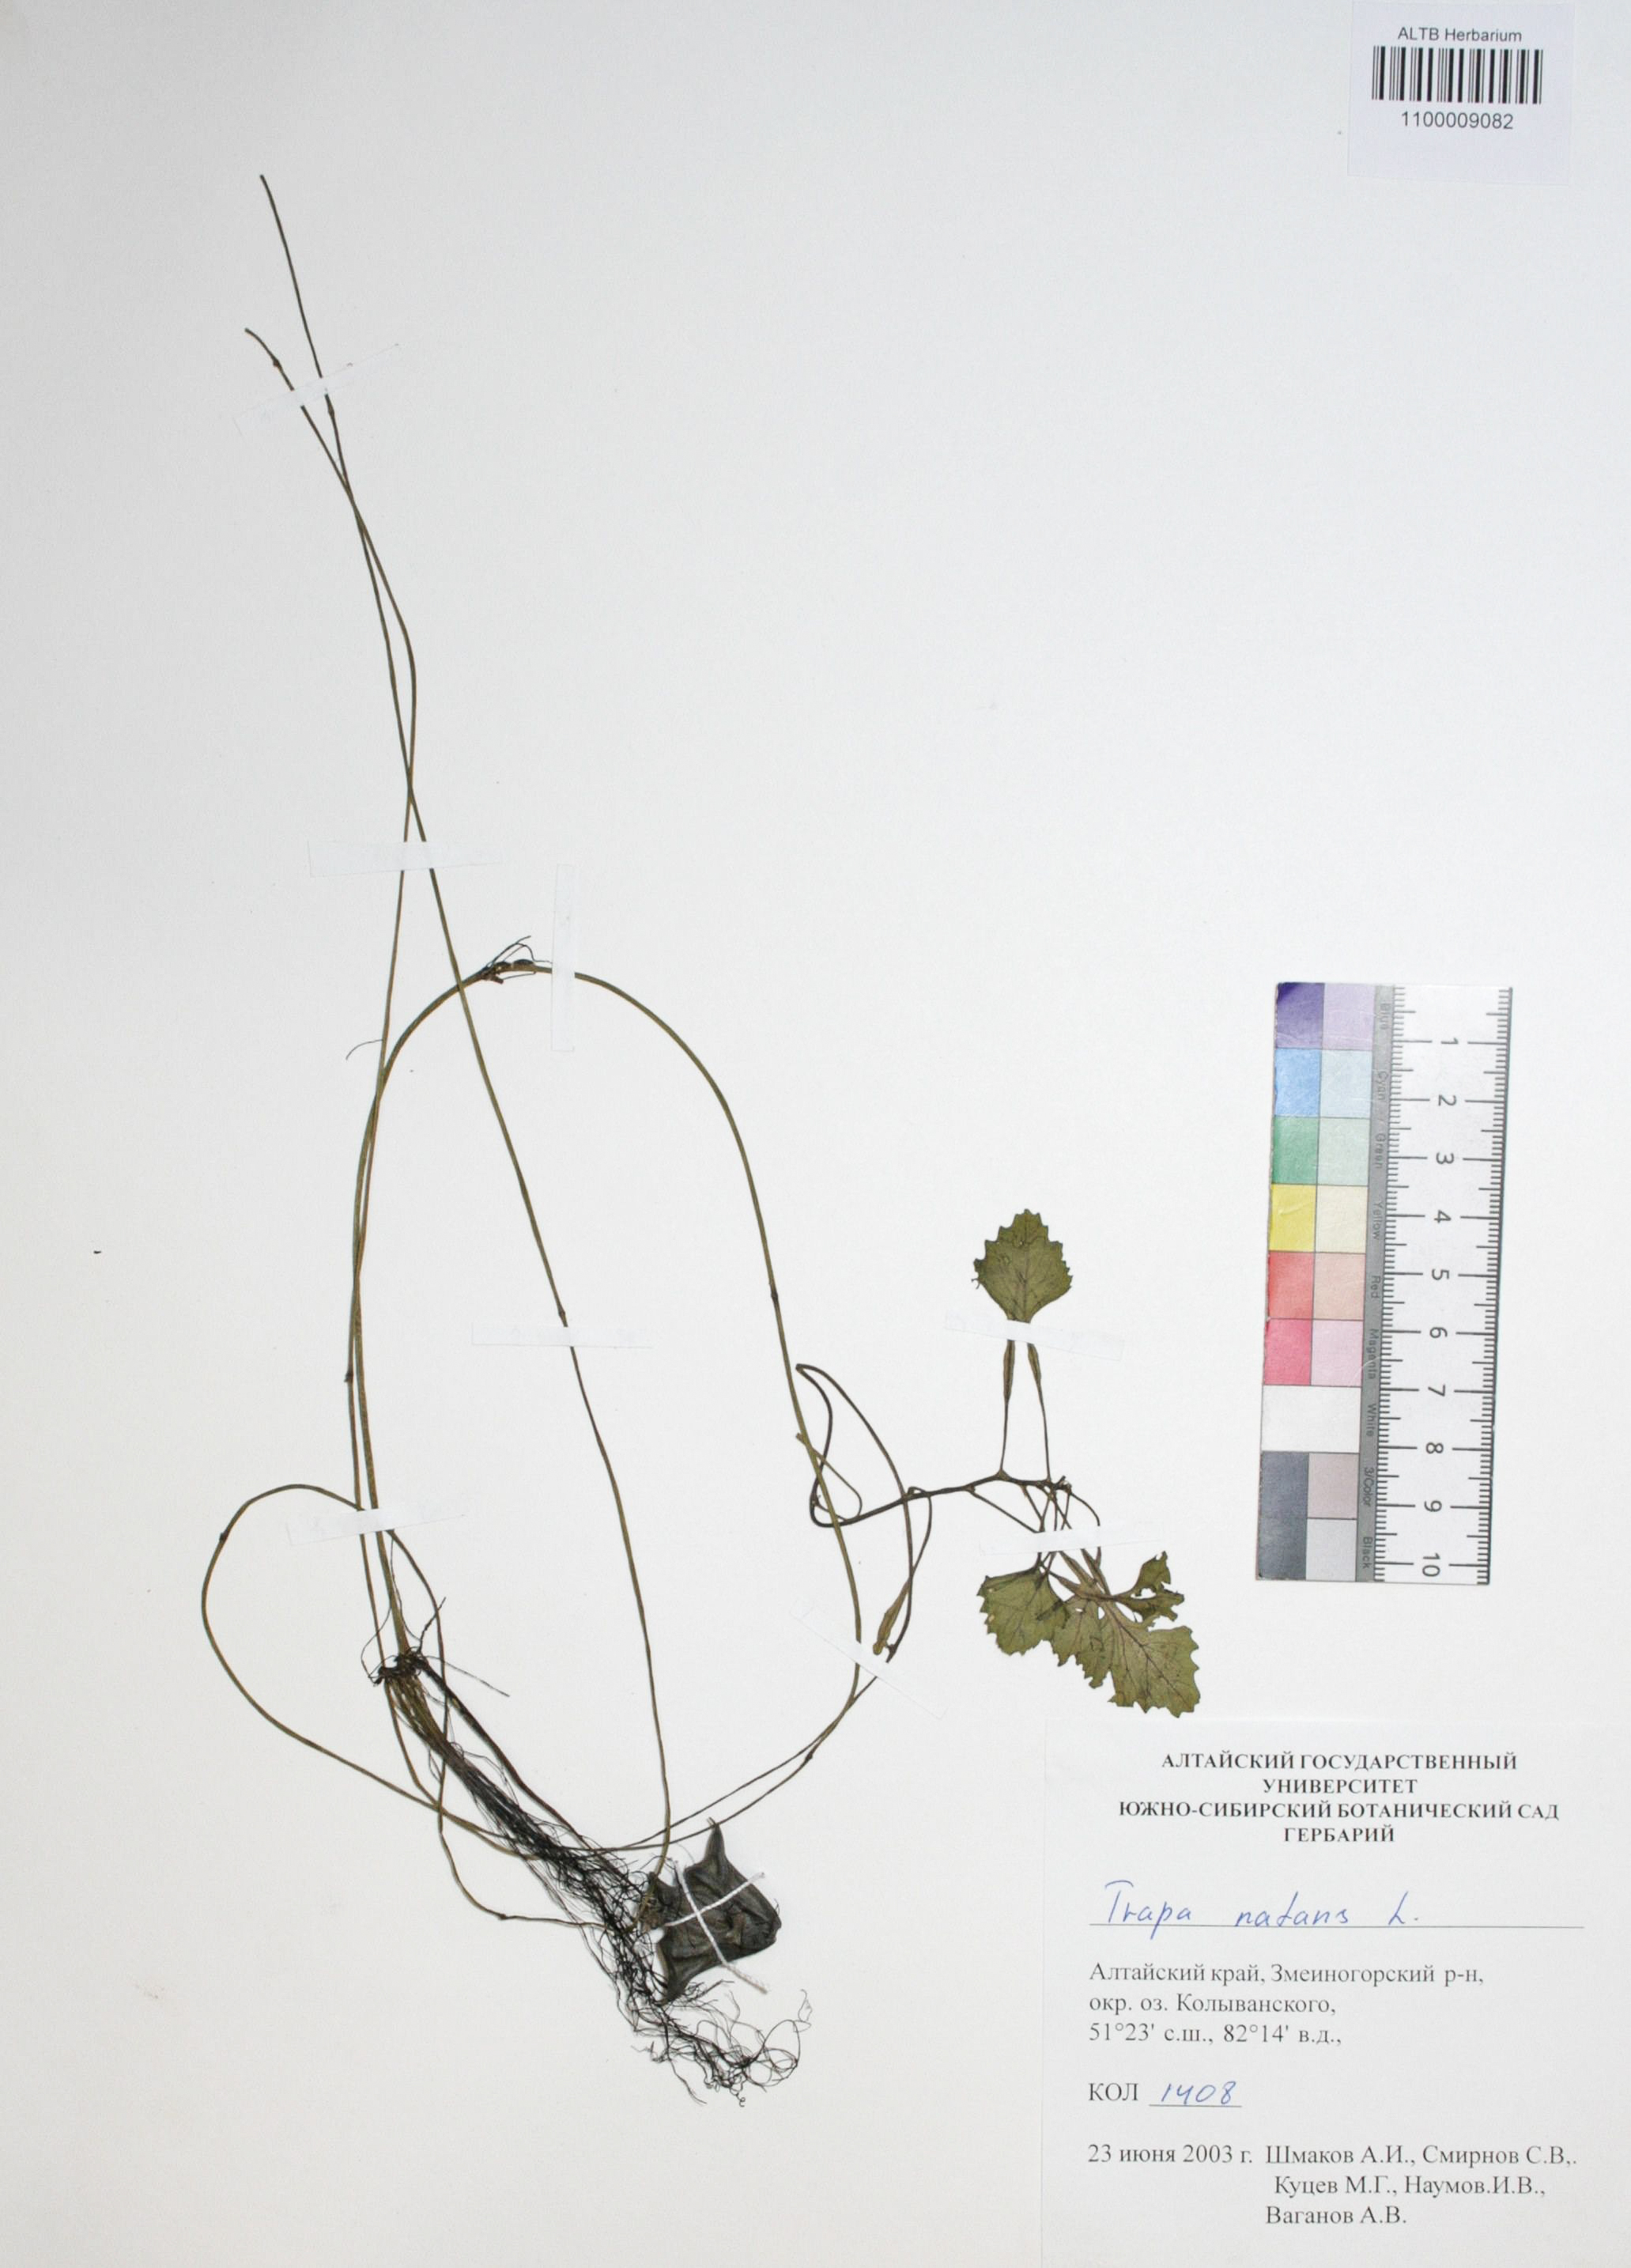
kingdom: Plantae
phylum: Tracheophyta
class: Magnoliopsida
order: Myrtales
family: Lythraceae
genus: Trapa
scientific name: Trapa natans
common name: Water chestnut
